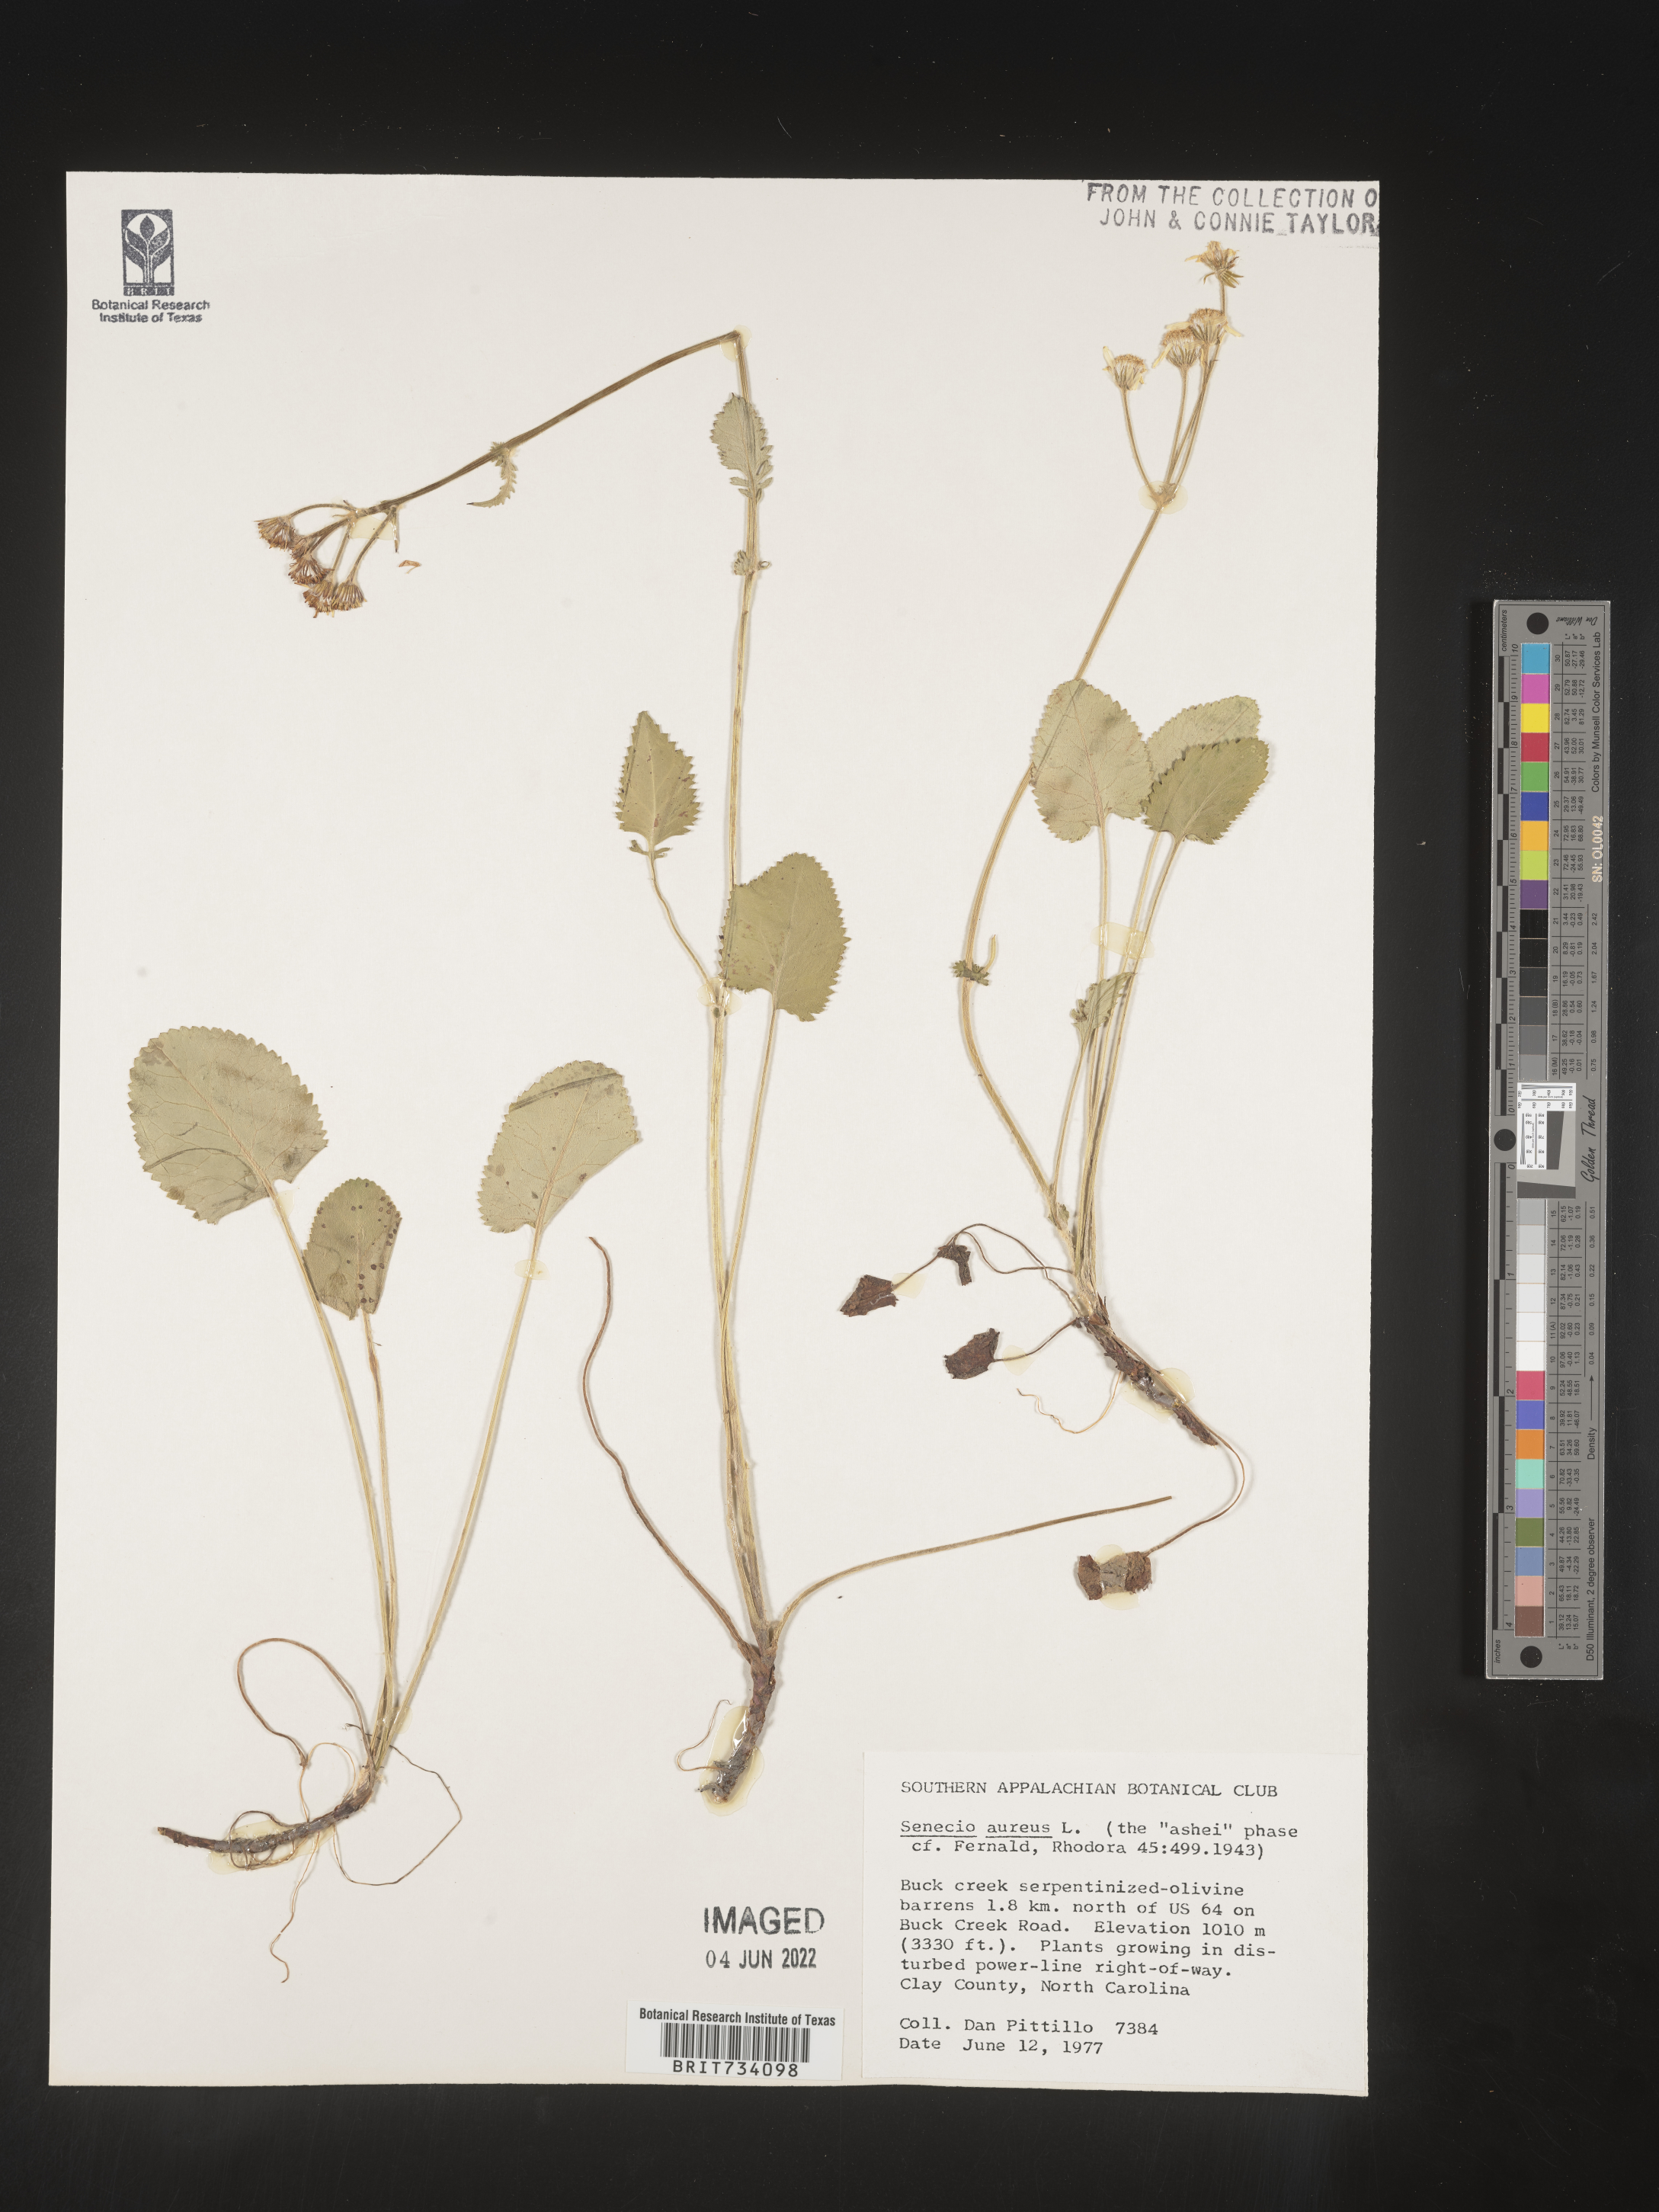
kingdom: Plantae
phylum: Tracheophyta
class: Magnoliopsida
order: Asterales
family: Asteraceae
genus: Packera
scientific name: Packera aurea
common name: Golden groundsel
